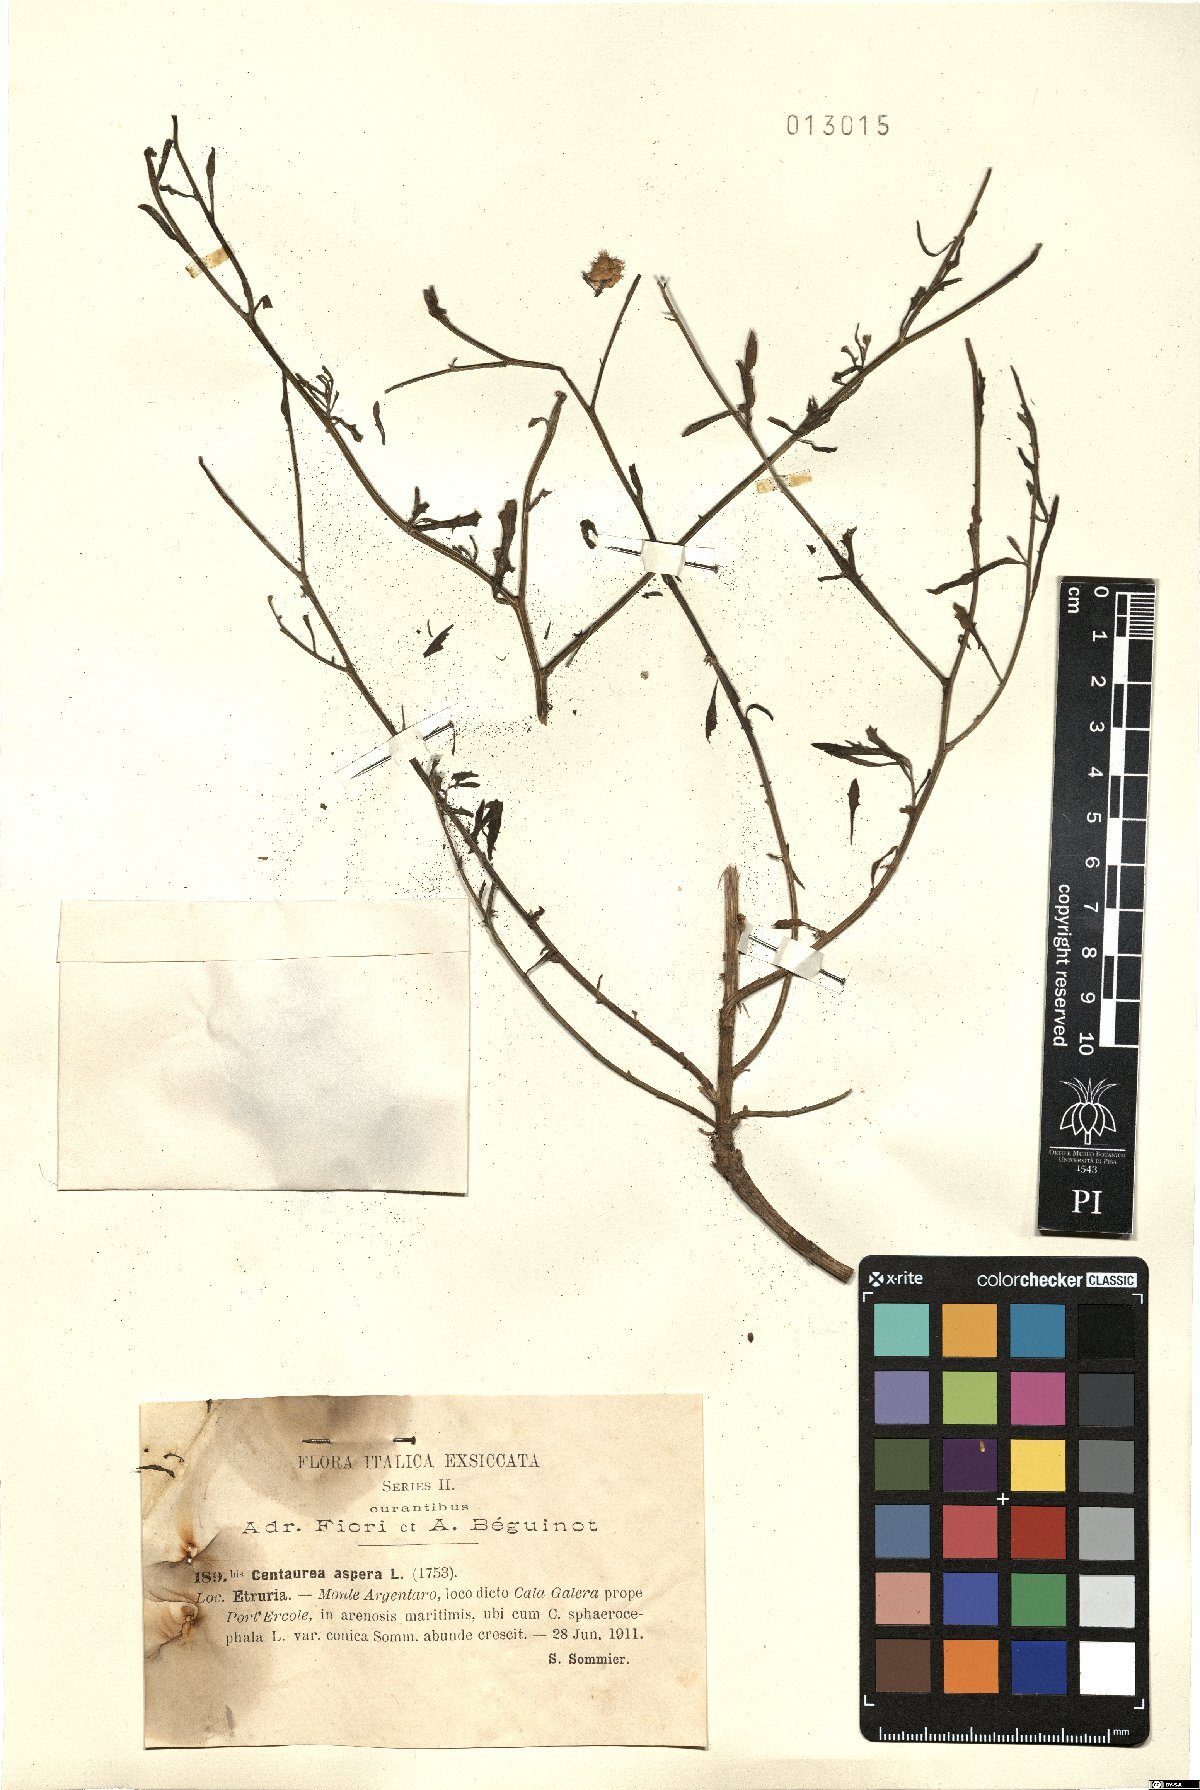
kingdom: Plantae
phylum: Tracheophyta
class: Magnoliopsida
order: Asterales
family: Asteraceae
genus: Centaurea
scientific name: Centaurea aspera
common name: Rough star-thistle
